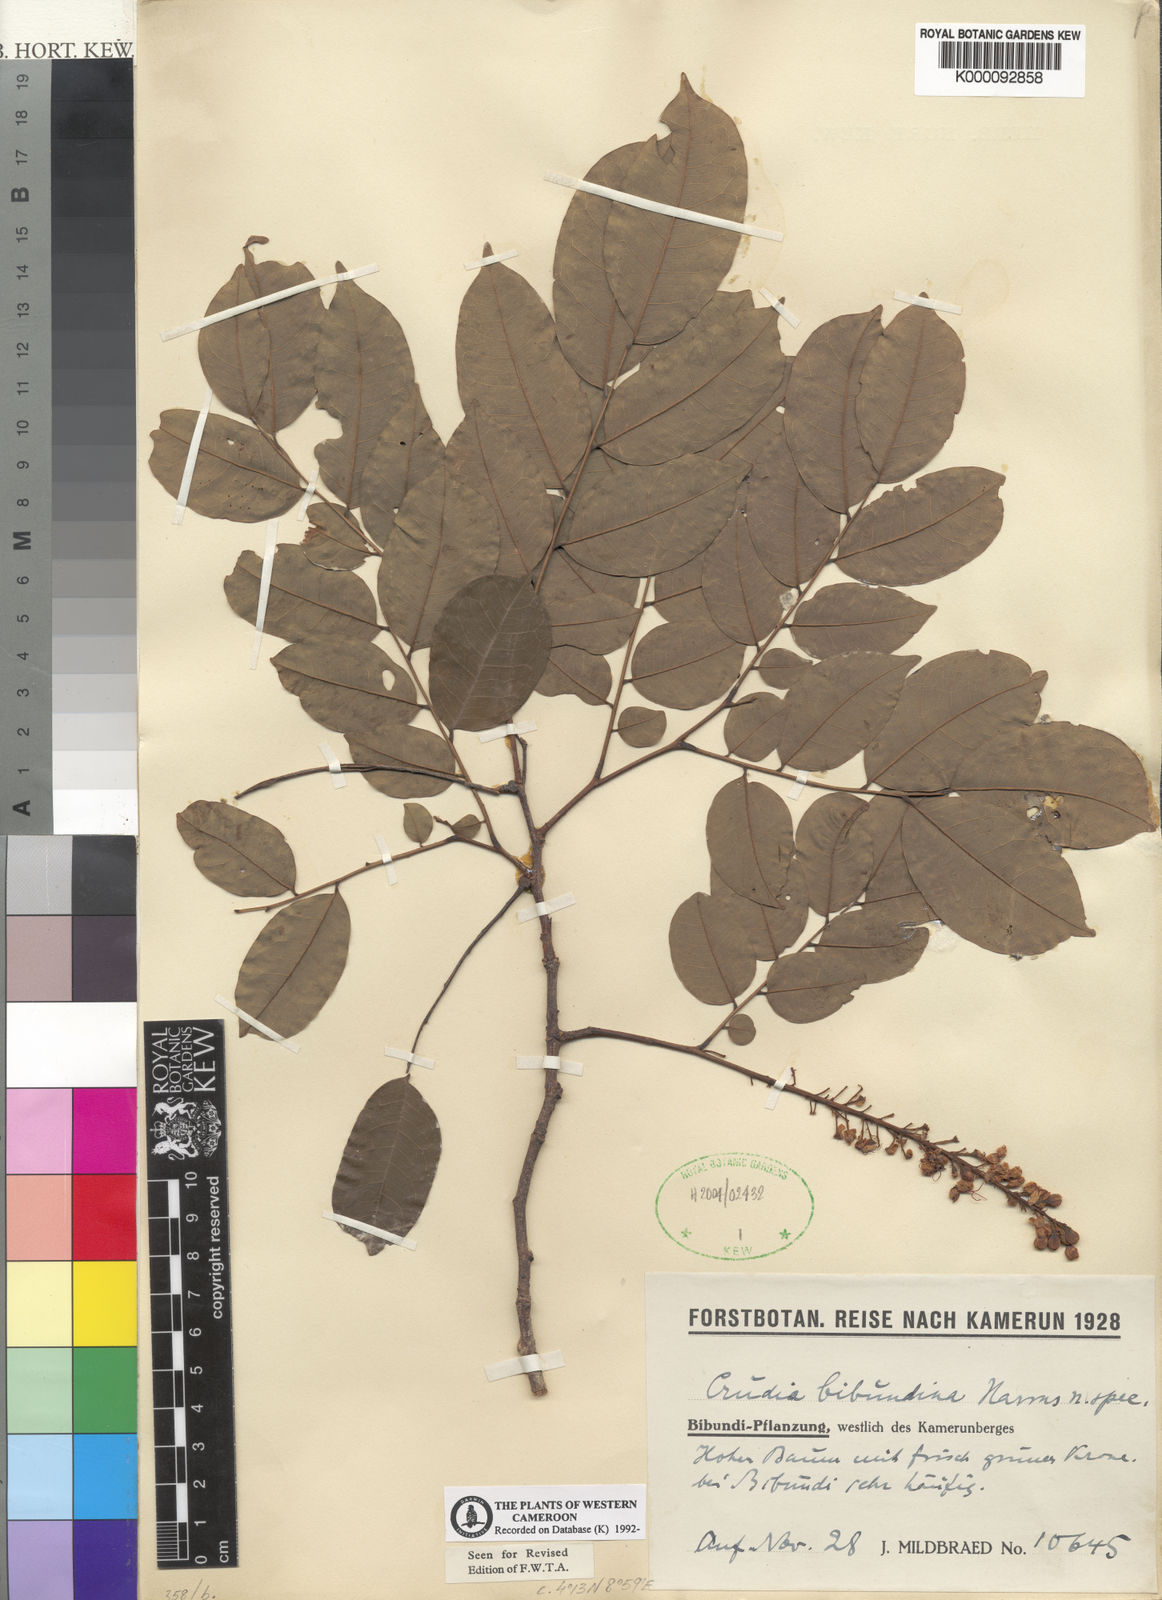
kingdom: Plantae
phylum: Tracheophyta
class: Magnoliopsida
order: Fabales
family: Fabaceae
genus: Crudia
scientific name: Crudia
